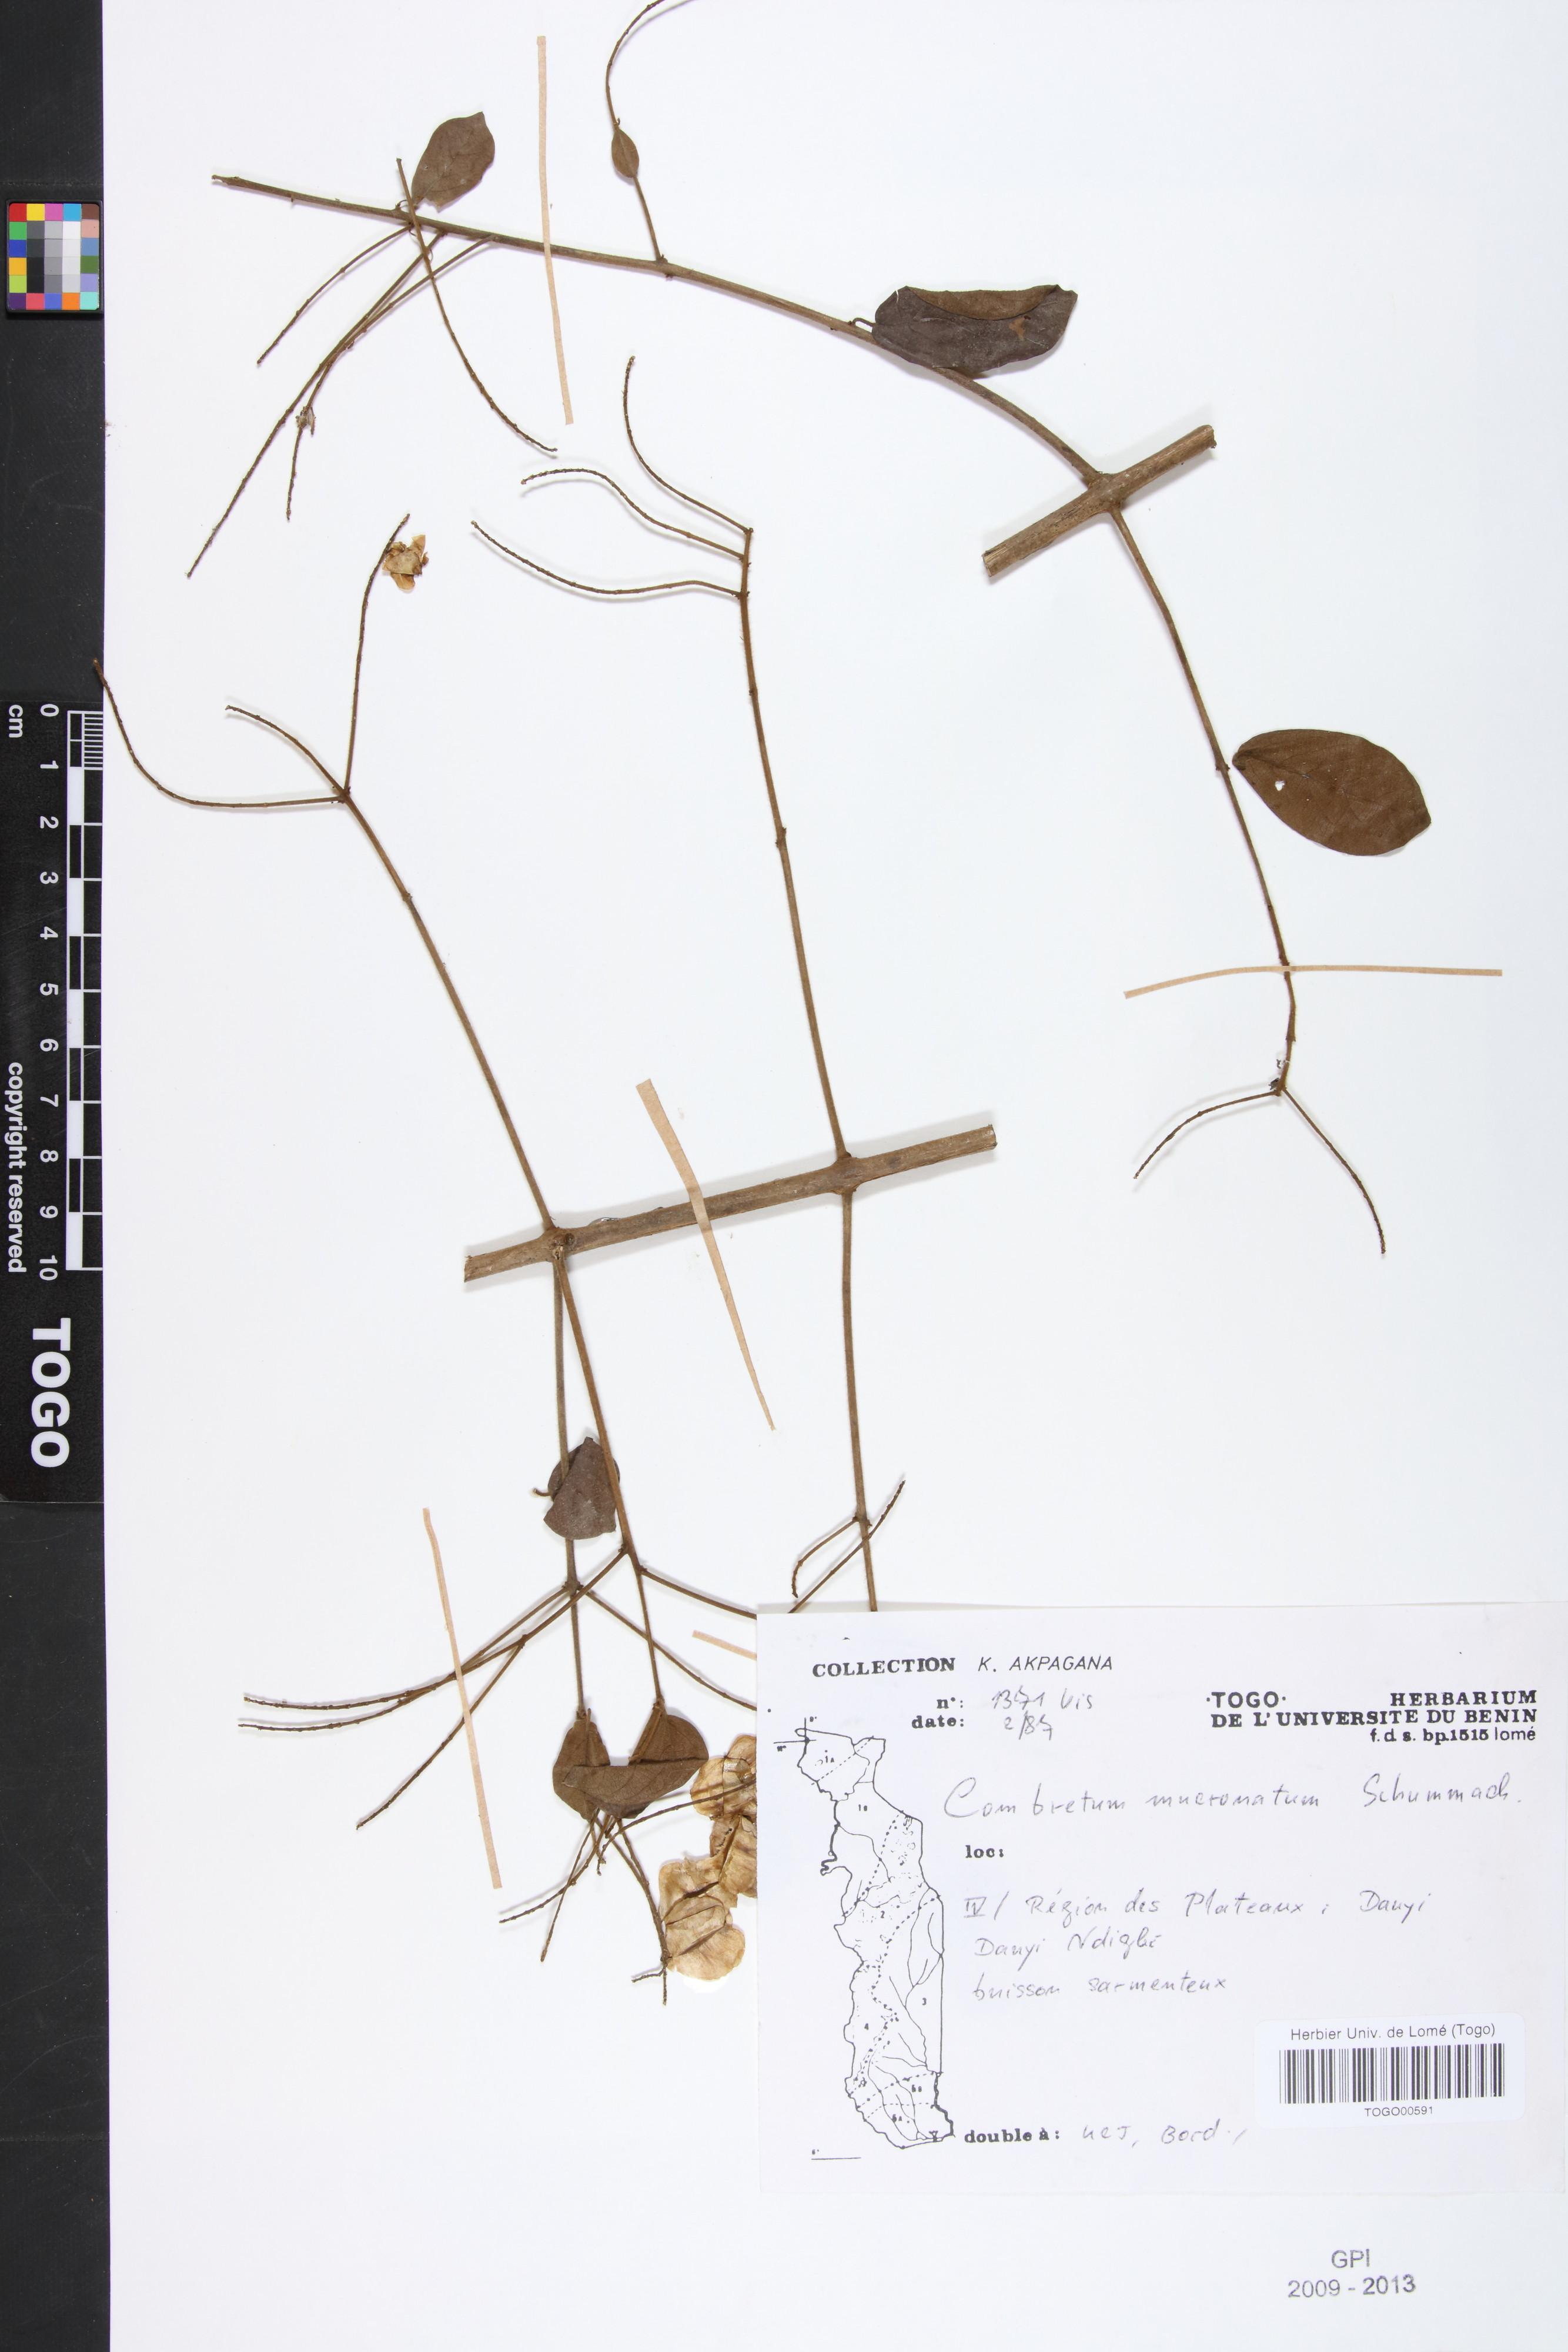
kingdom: Plantae
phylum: Tracheophyta
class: Magnoliopsida
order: Myrtales
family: Combretaceae
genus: Combretum
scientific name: Combretum mucronatum
